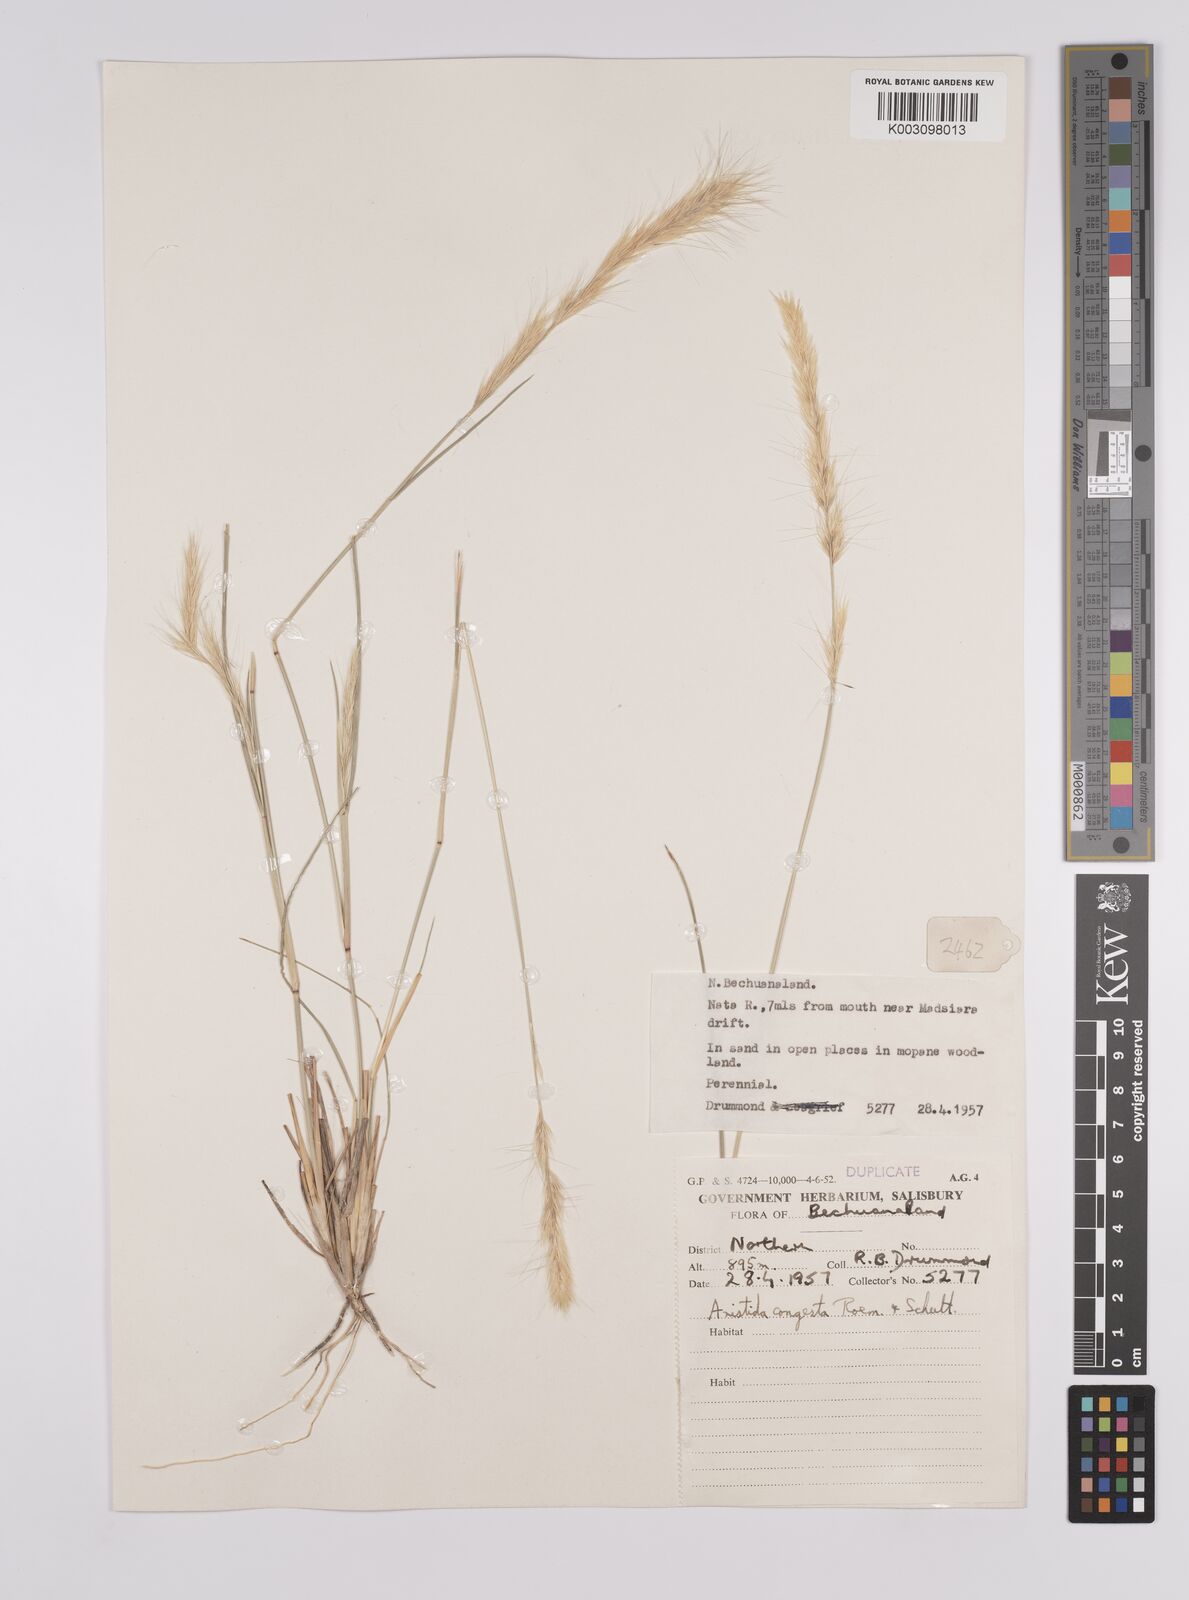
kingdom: Plantae
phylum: Tracheophyta
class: Liliopsida
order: Poales
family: Poaceae
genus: Aristida
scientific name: Aristida congesta
